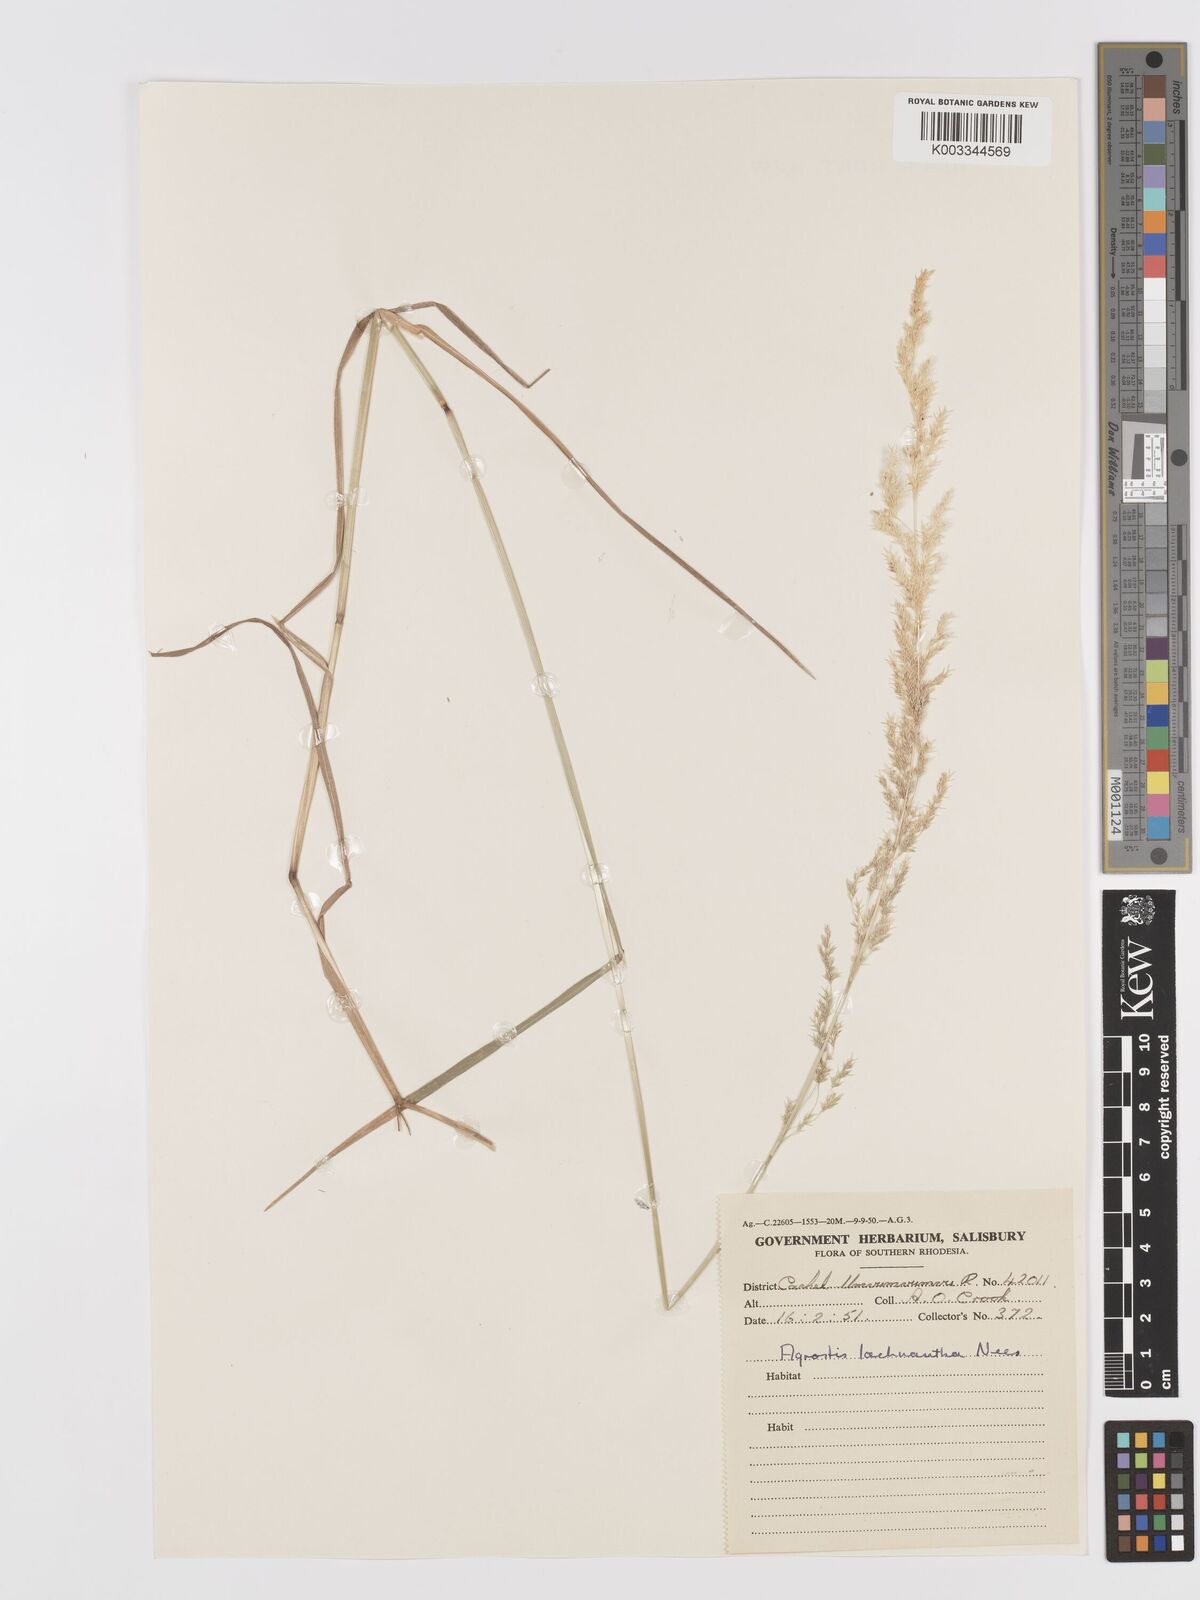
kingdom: Plantae
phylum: Tracheophyta
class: Liliopsida
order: Poales
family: Poaceae
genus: Lachnagrostis
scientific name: Lachnagrostis lachnantha
